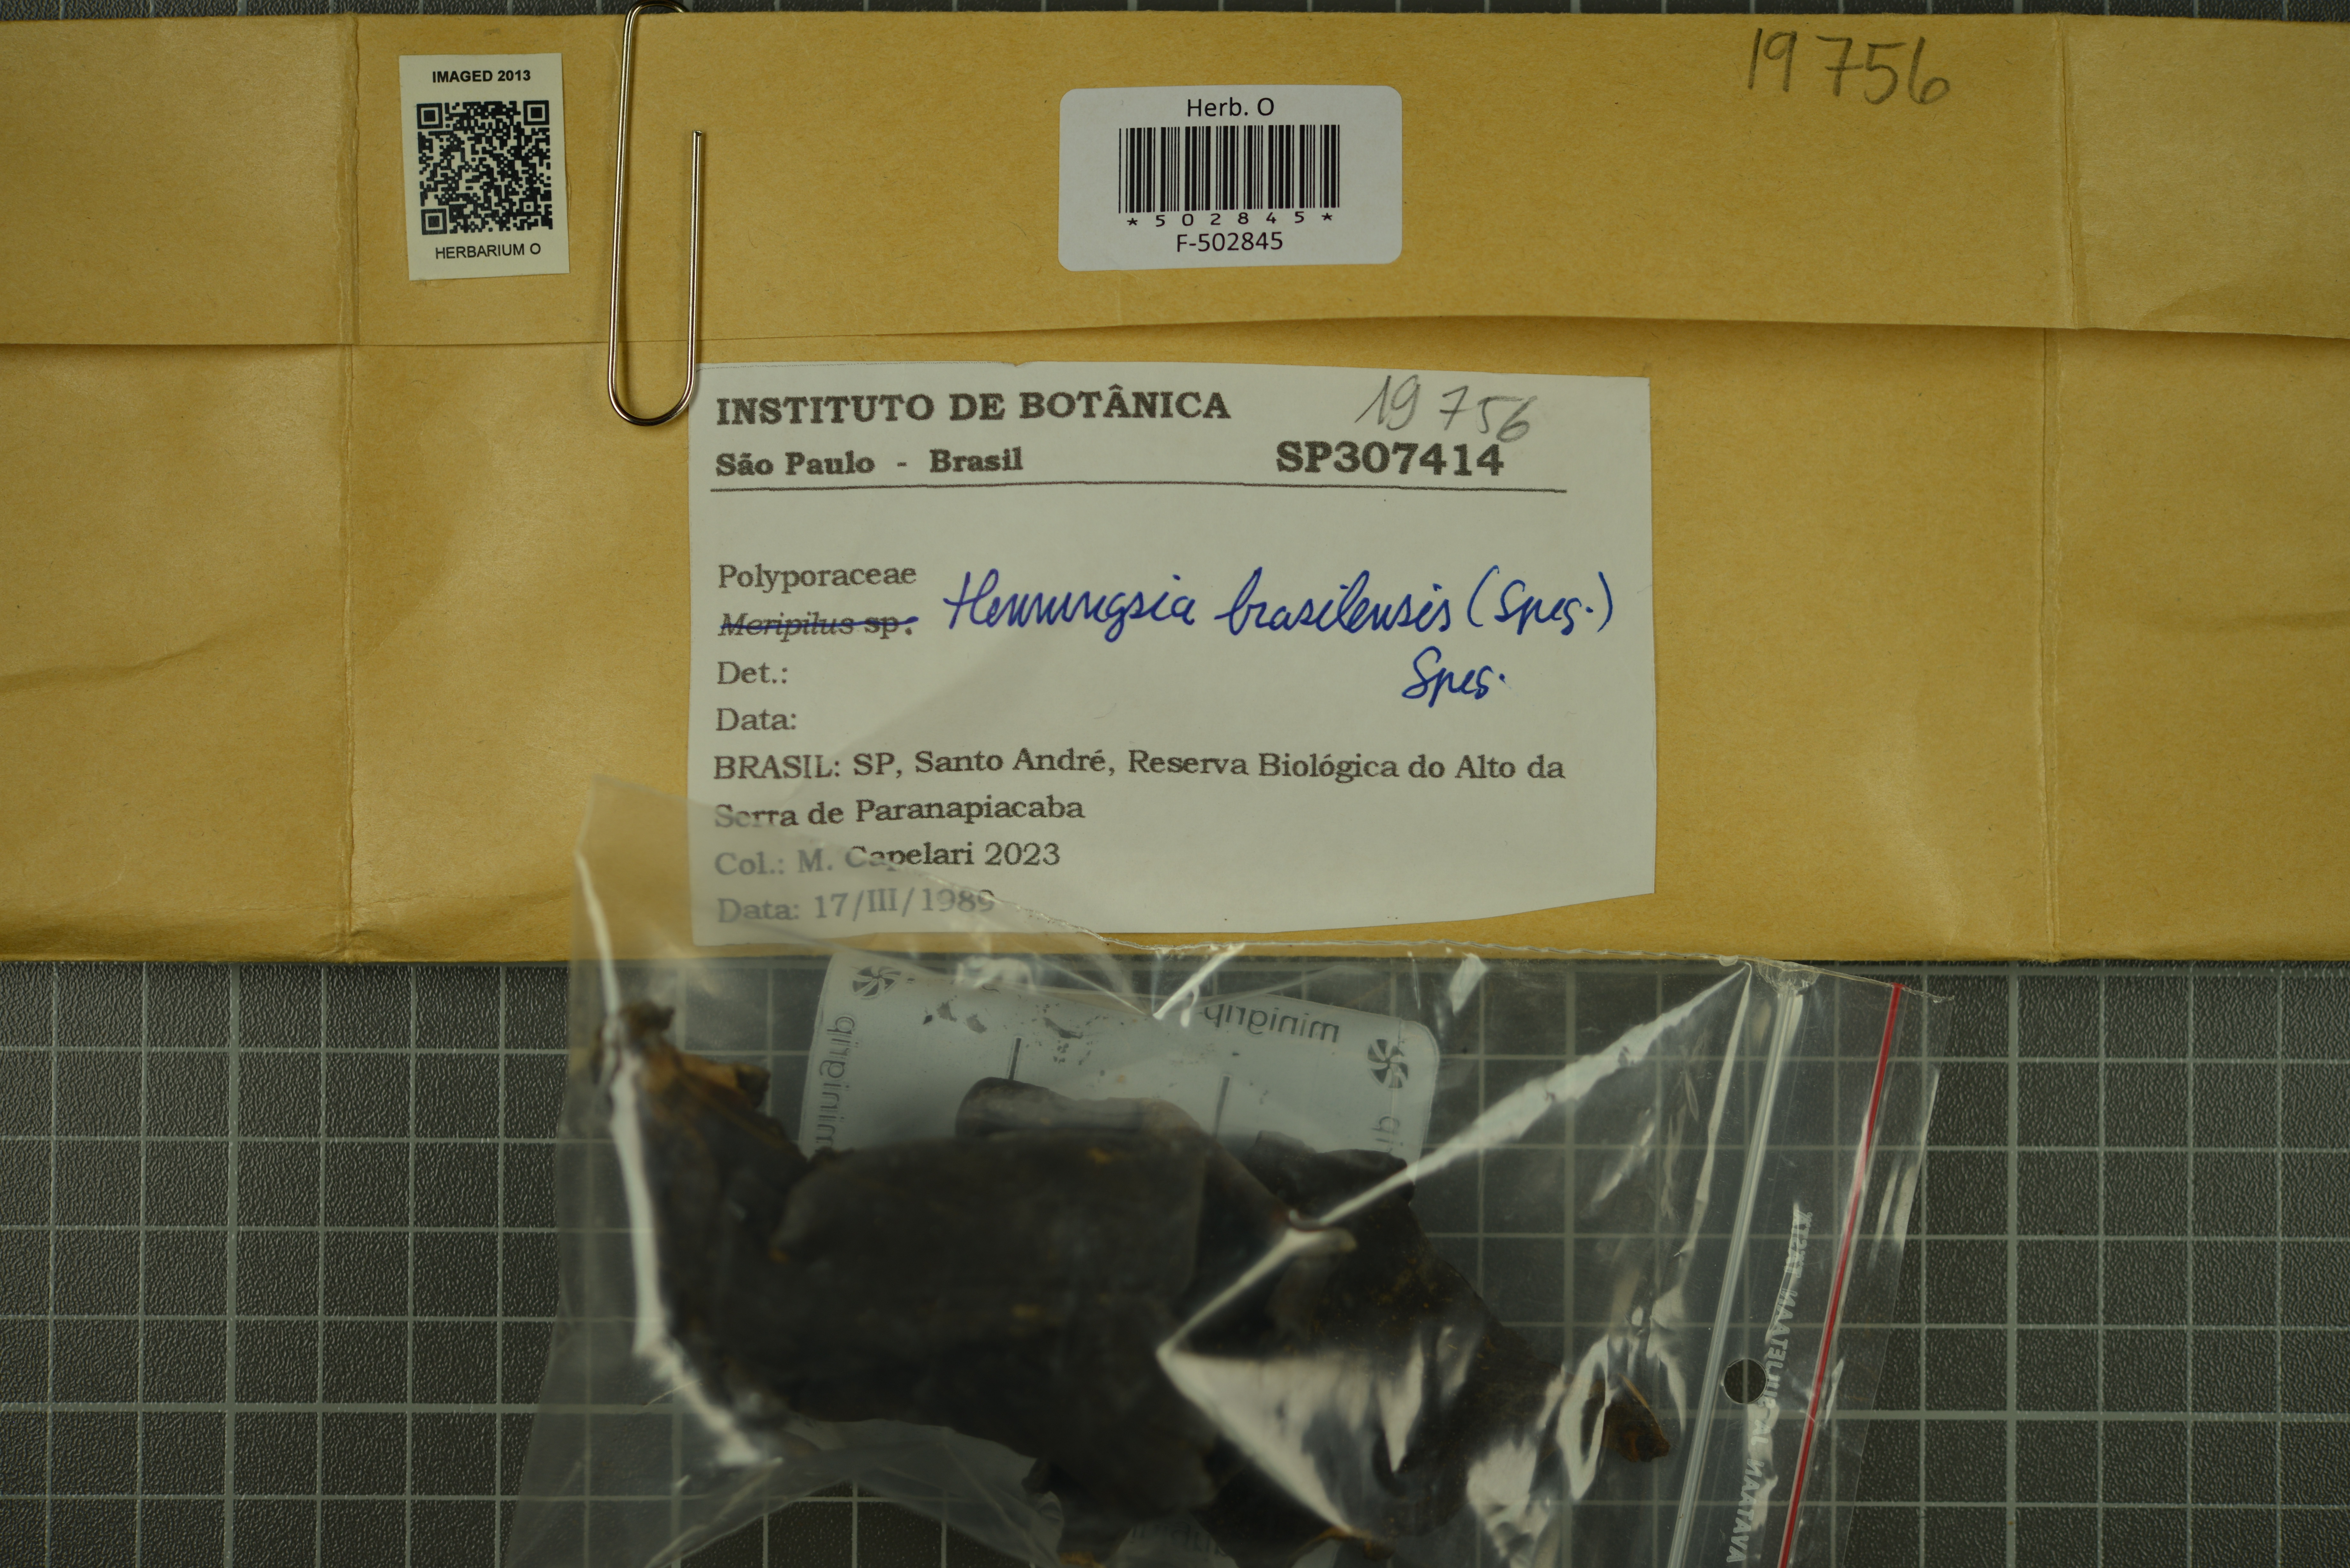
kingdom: Fungi
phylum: Basidiomycota
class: Agaricomycetes
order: Polyporales
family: Meripilaceae
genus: Henningsia
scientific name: Henningsia brasiliensis
